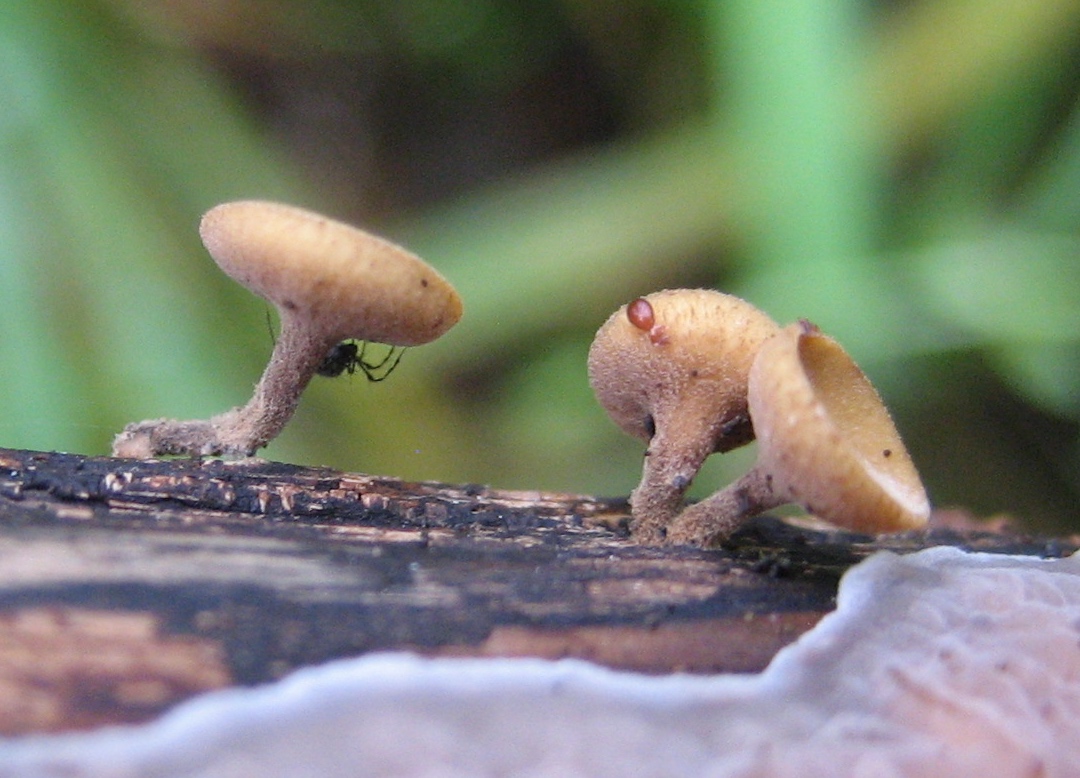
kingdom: Fungi
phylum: Ascomycota
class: Leotiomycetes
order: Helotiales
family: Rutstroemiaceae
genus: Rutstroemia
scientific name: Rutstroemia firma
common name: gren-brunskive
